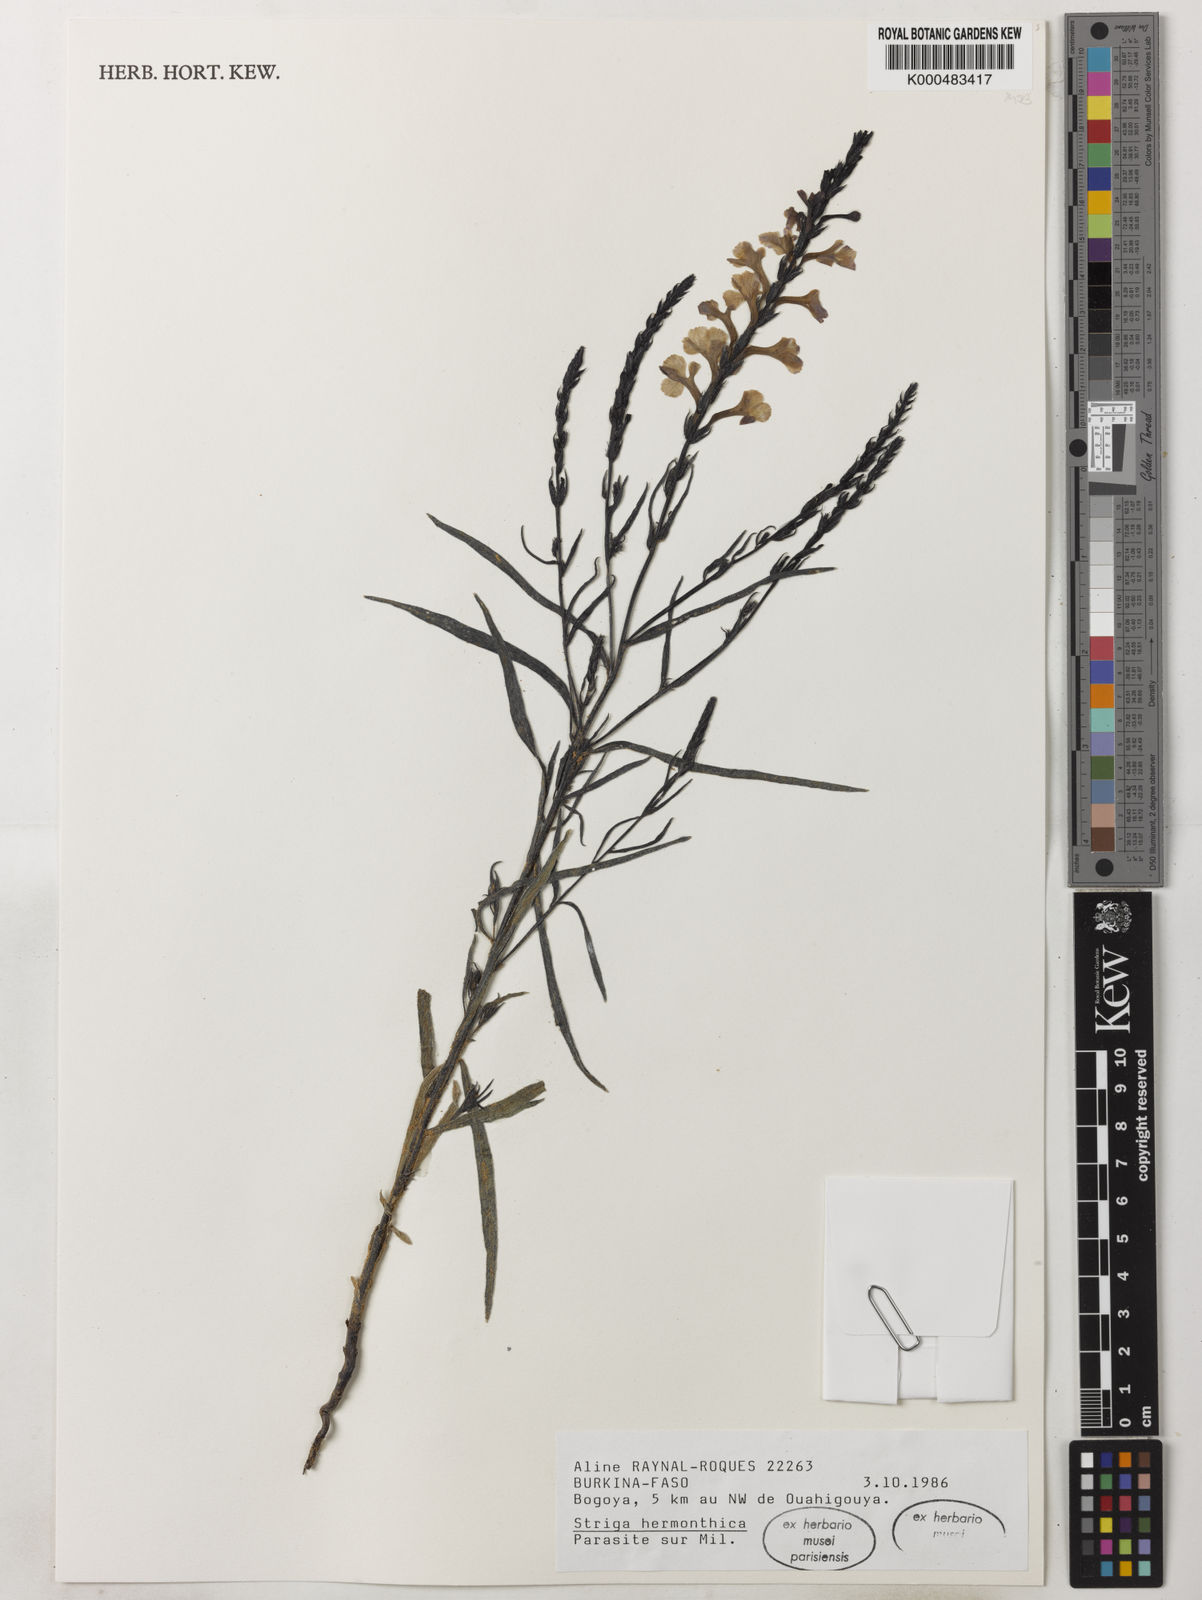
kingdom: Plantae
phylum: Tracheophyta
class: Magnoliopsida
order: Lamiales
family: Orobanchaceae
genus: Striga
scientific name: Striga hermonthica
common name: Purple witchweed
